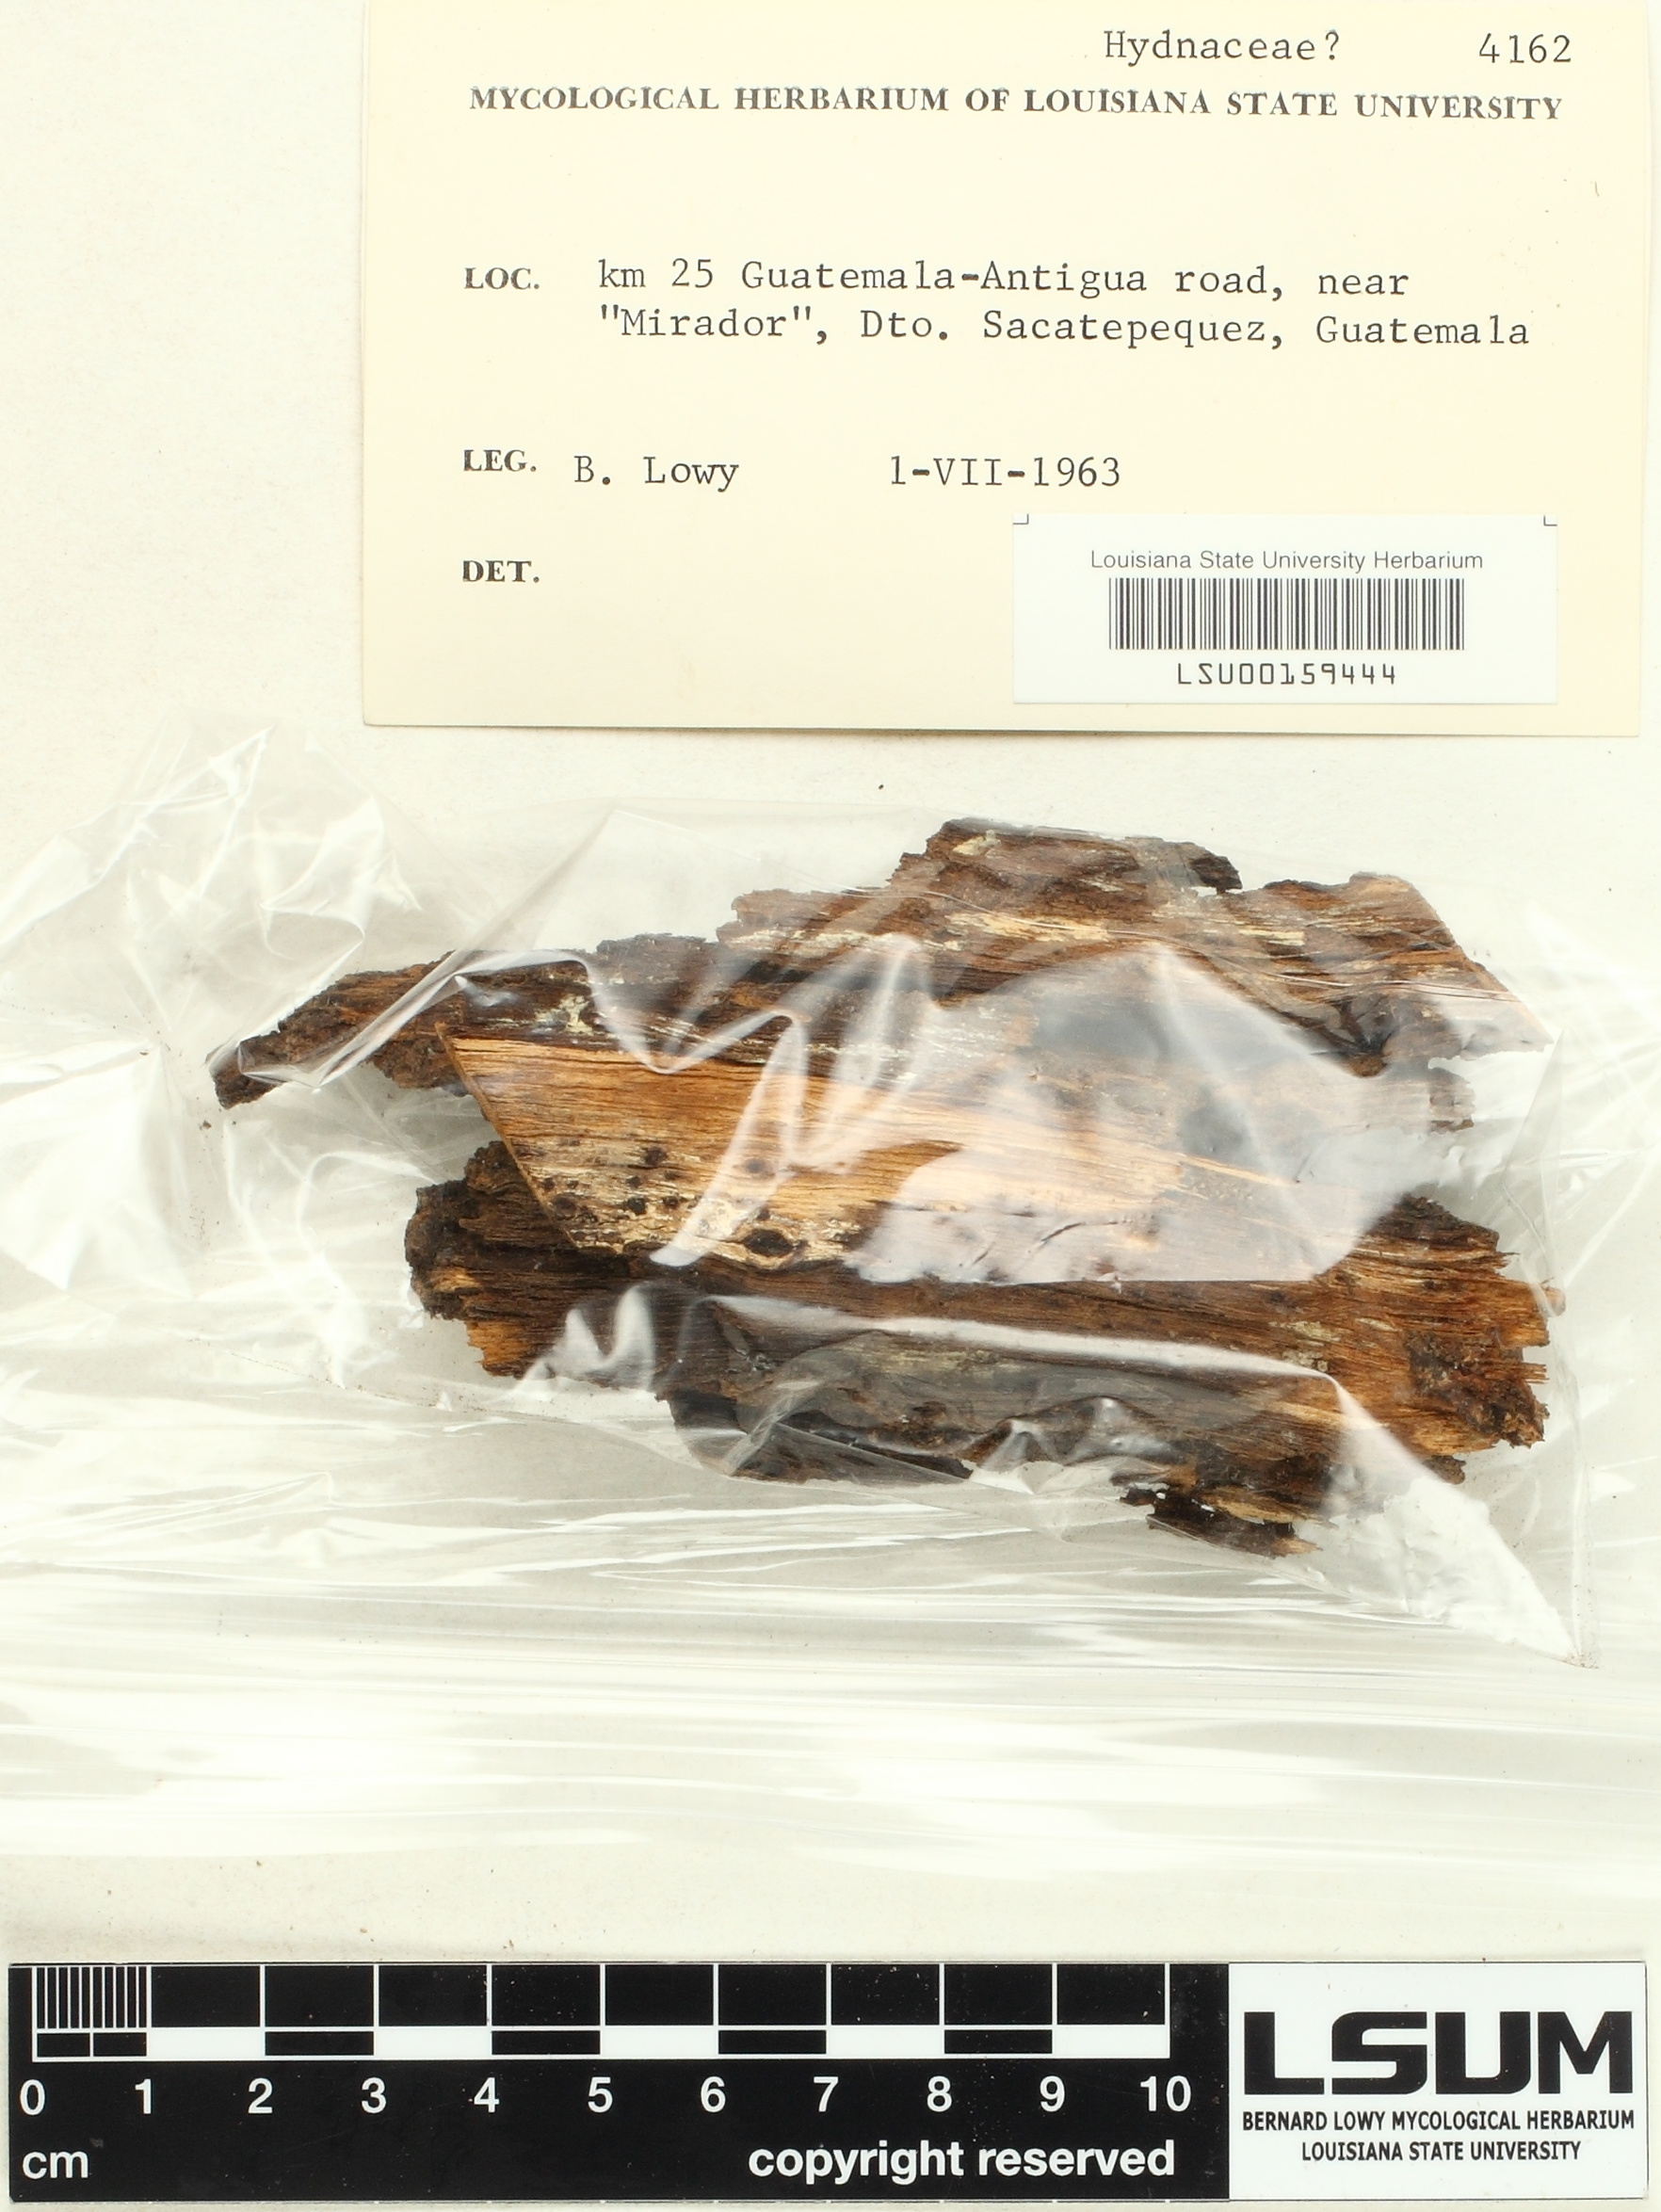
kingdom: Fungi
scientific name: Fungi
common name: Fungi
